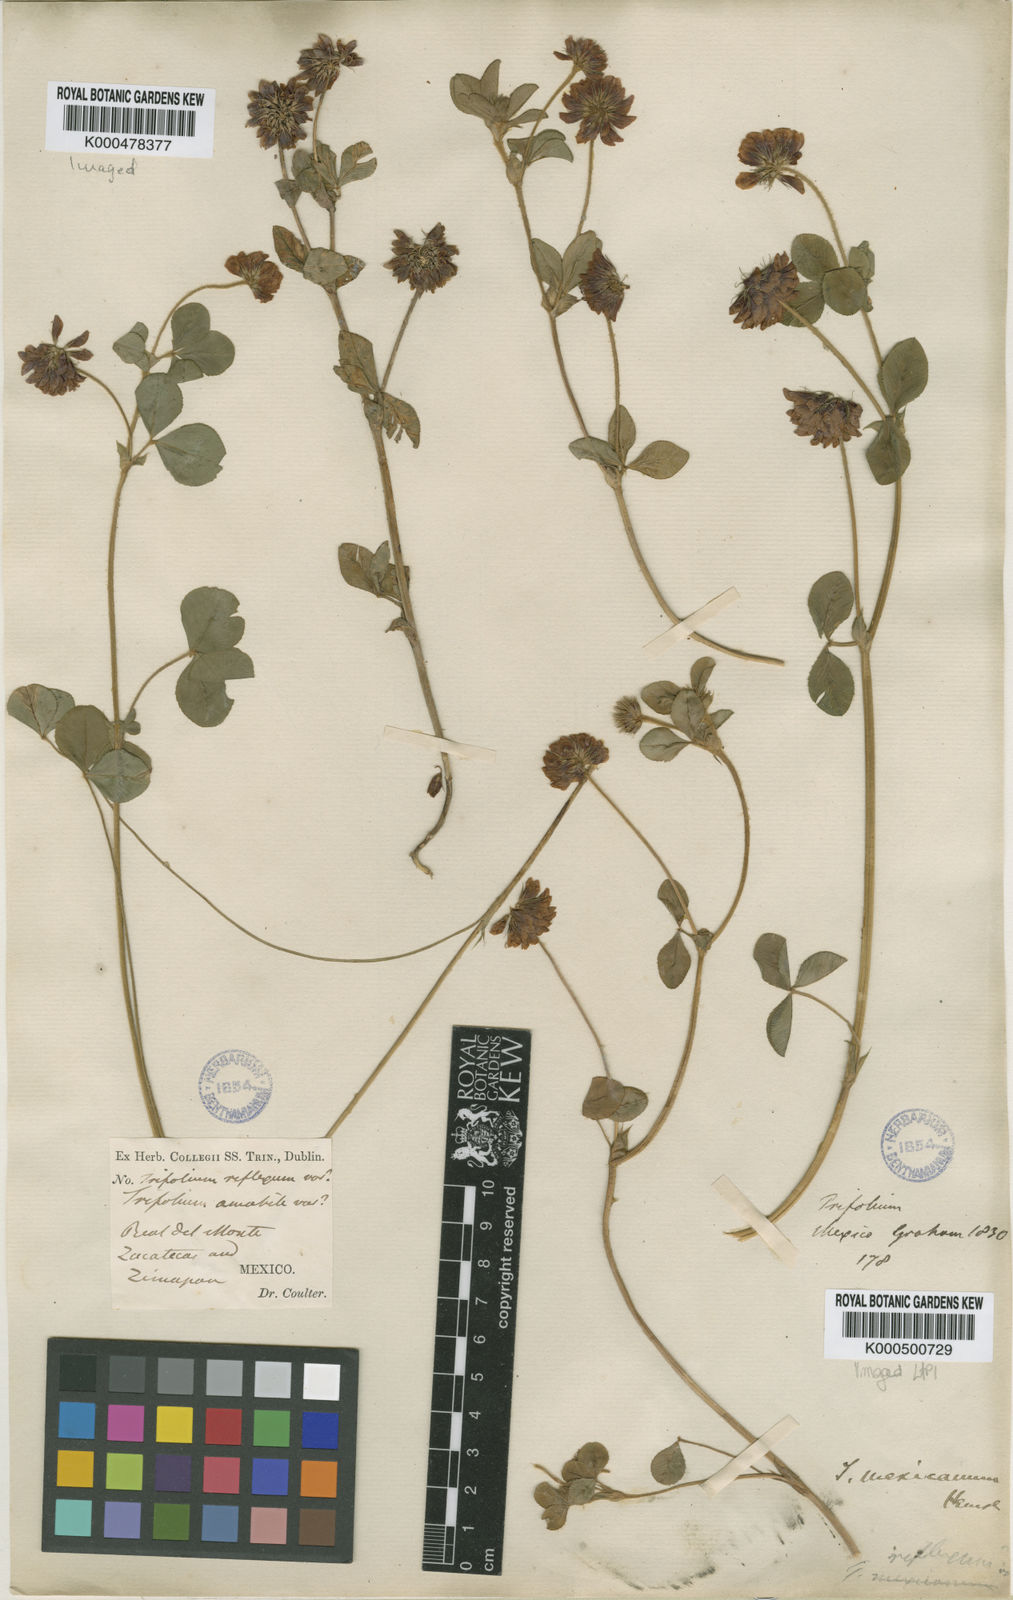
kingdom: Plantae
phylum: Tracheophyta
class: Magnoliopsida
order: Fabales
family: Fabaceae
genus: Trifolium
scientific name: Trifolium amabile
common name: Aztec clover
